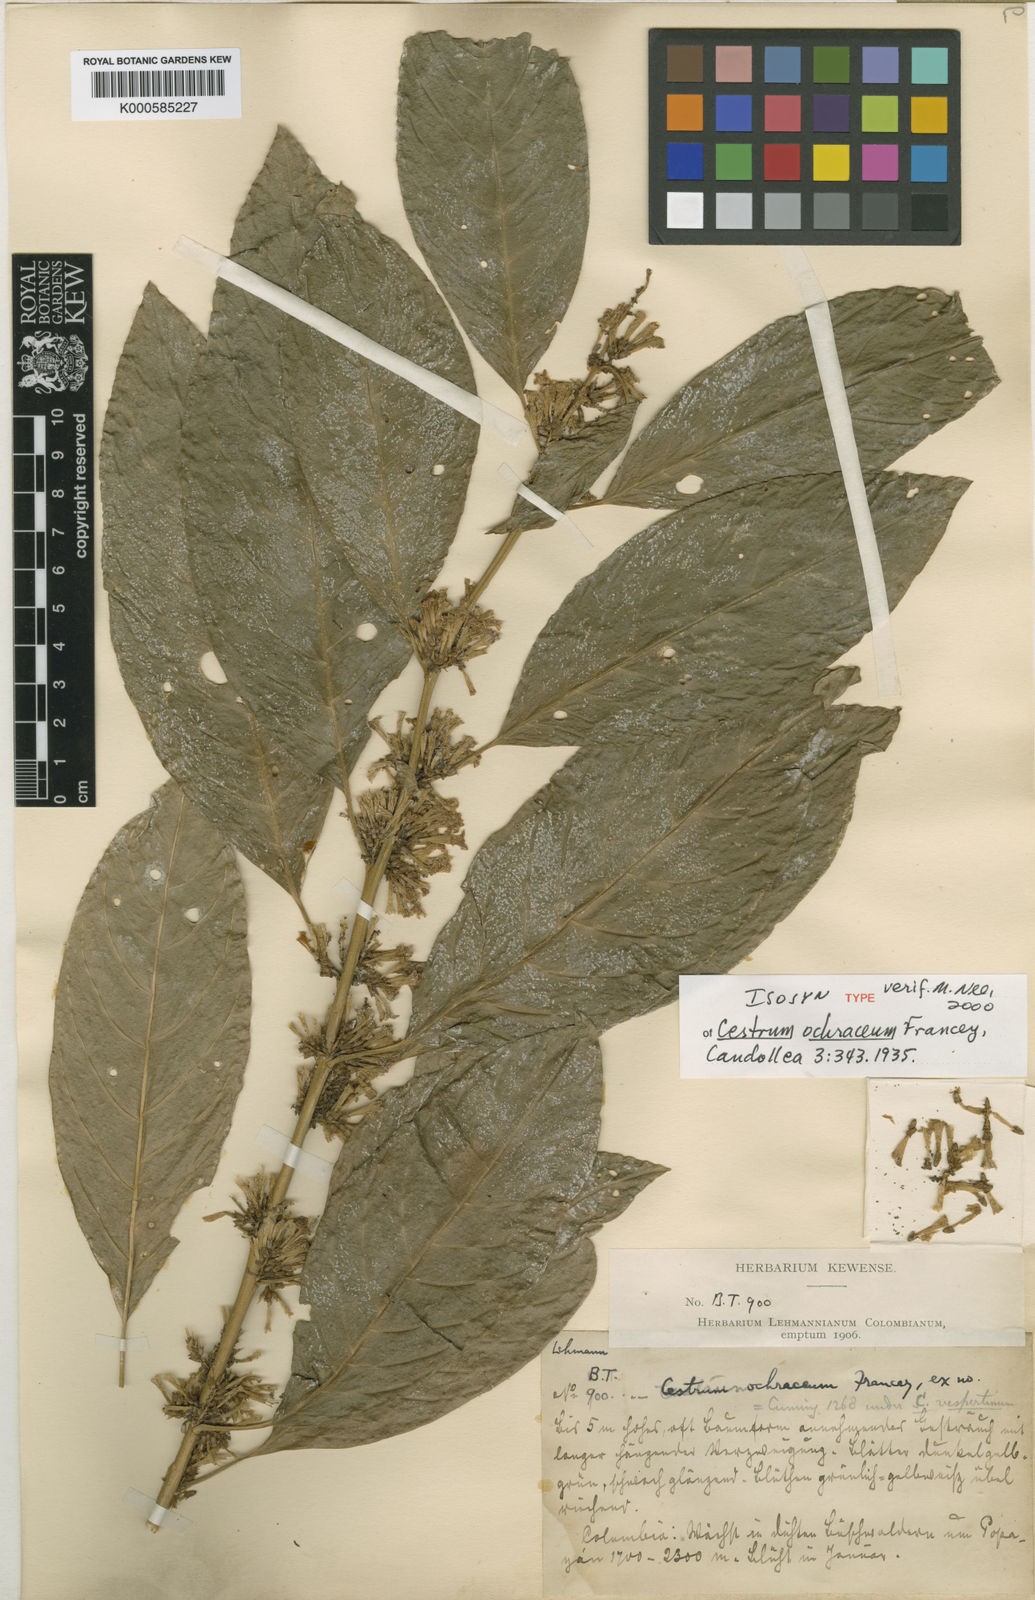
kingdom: Plantae
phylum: Tracheophyta
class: Magnoliopsida
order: Solanales
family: Solanaceae
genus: Cestrum
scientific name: Cestrum ochraceum
